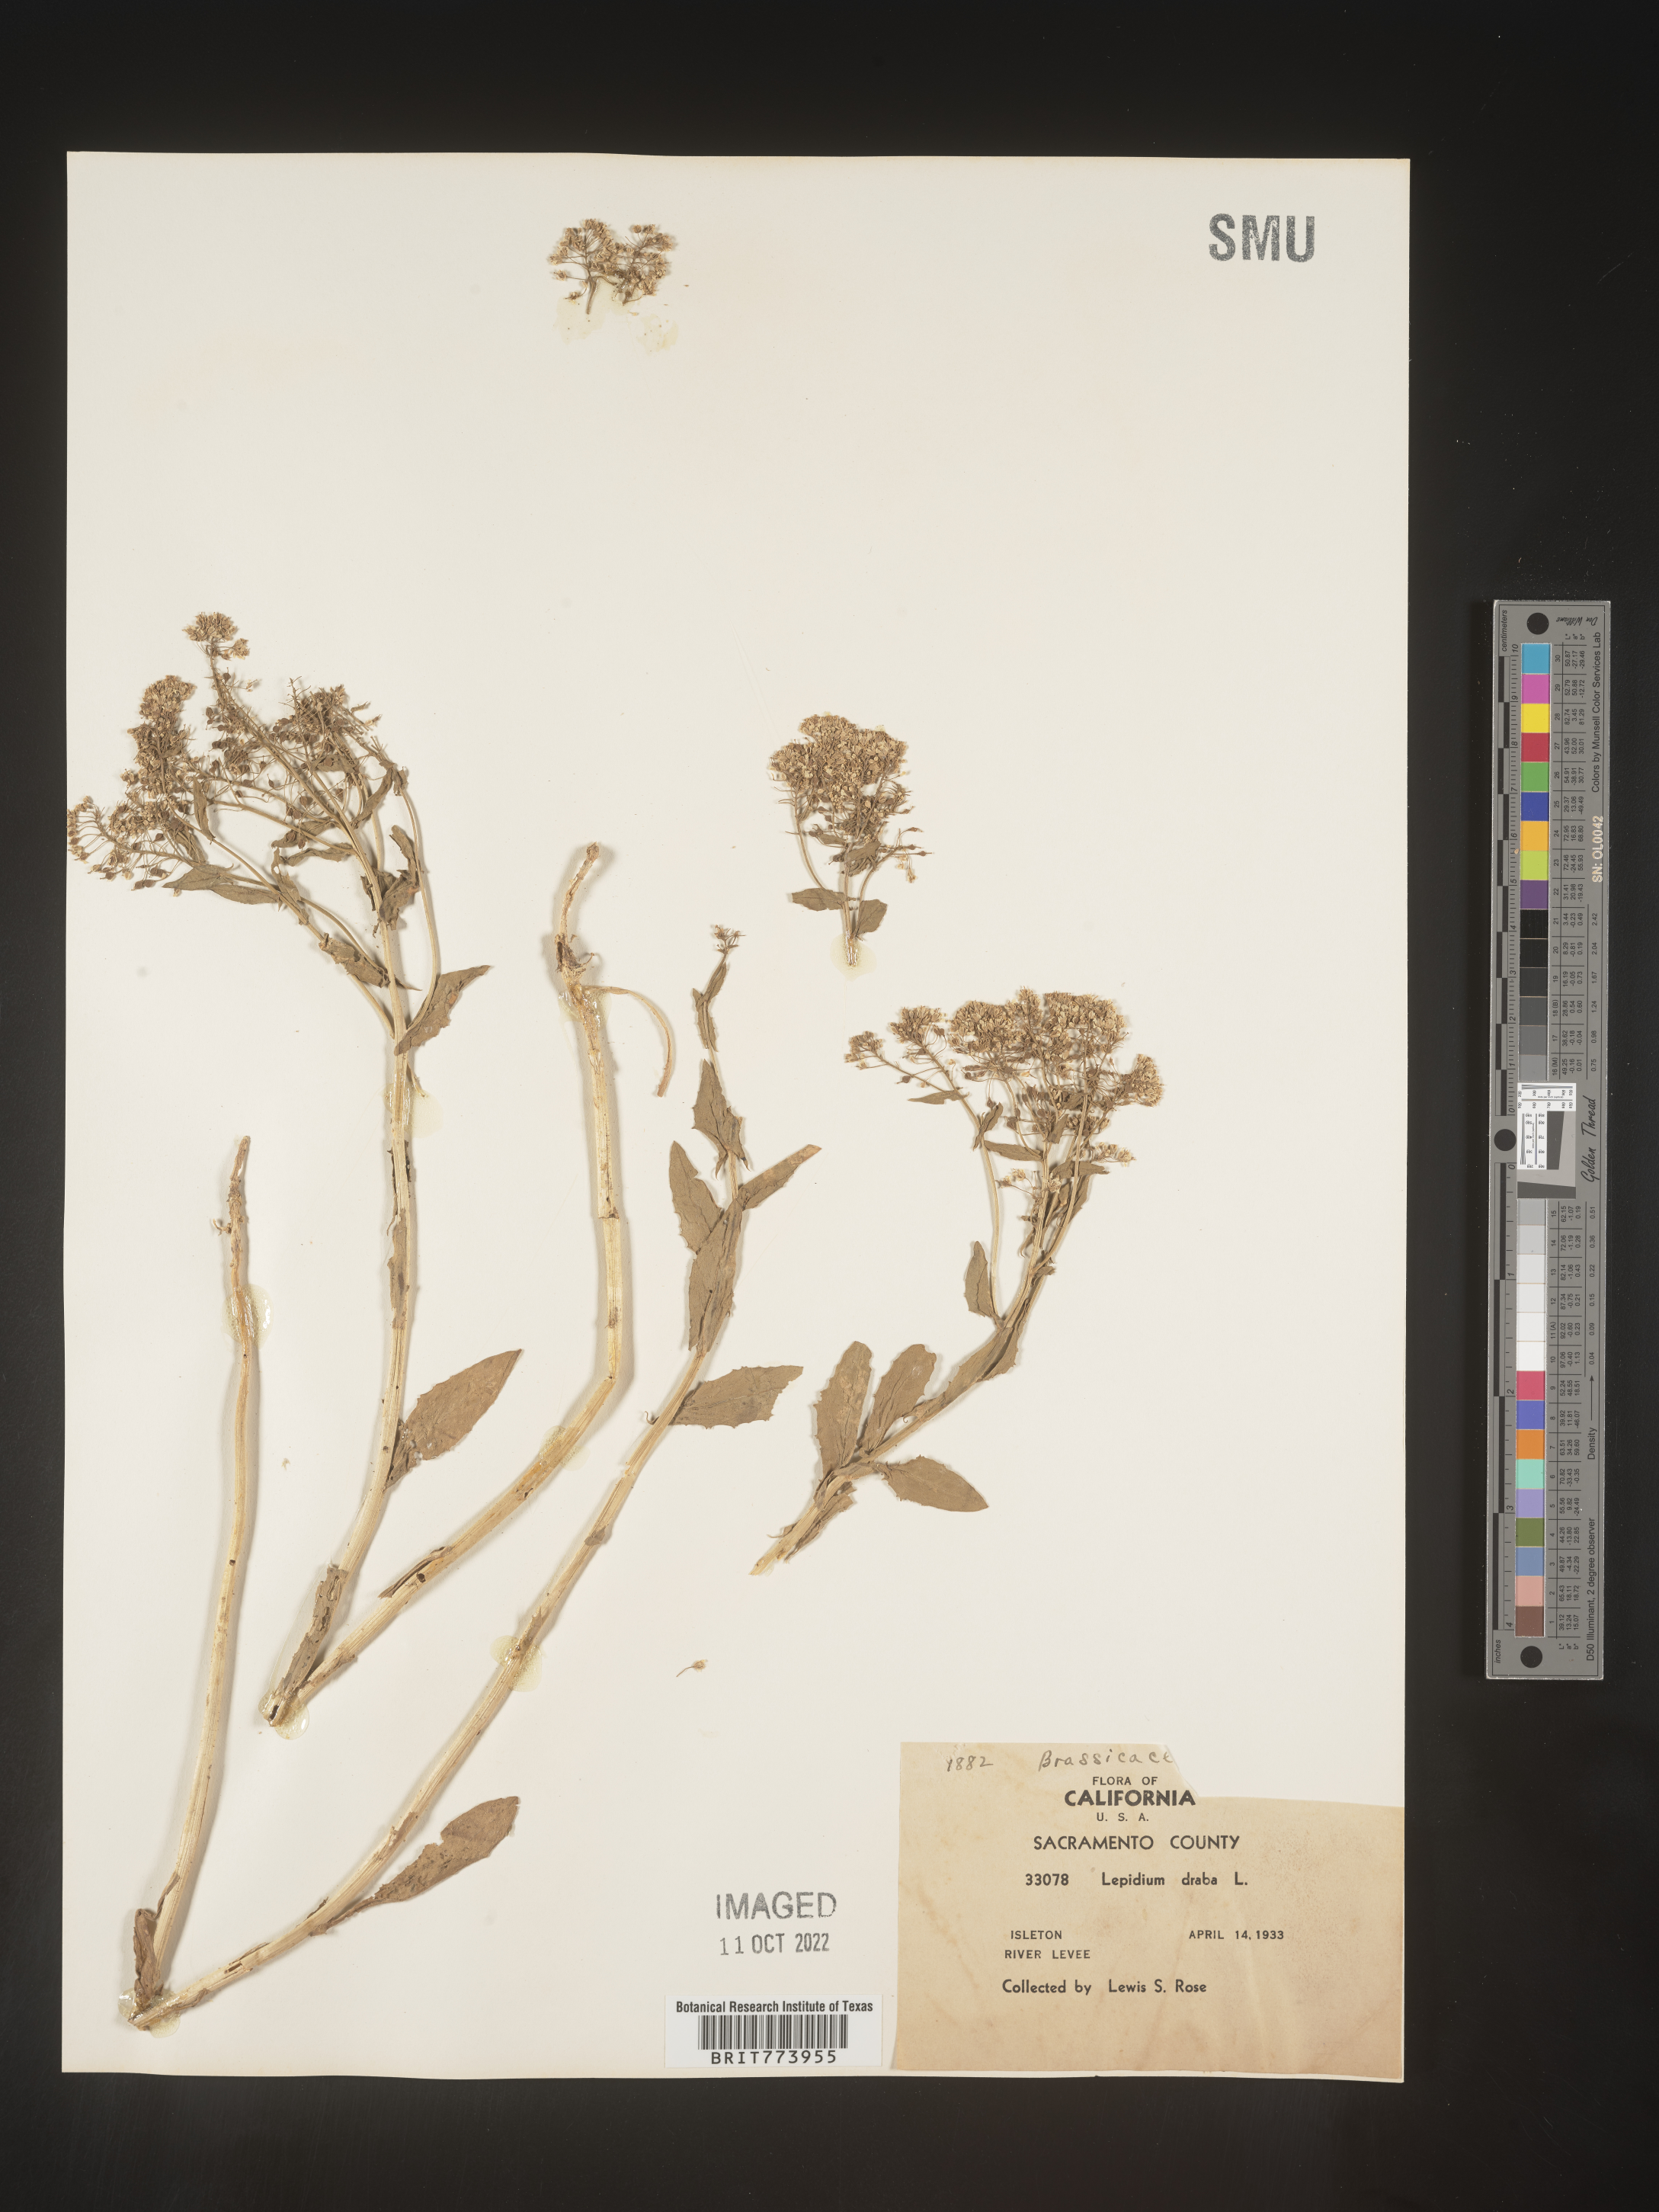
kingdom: Plantae
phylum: Tracheophyta
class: Magnoliopsida
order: Brassicales
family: Brassicaceae
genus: Lepidium
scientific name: Lepidium draba
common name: Hoary cress
